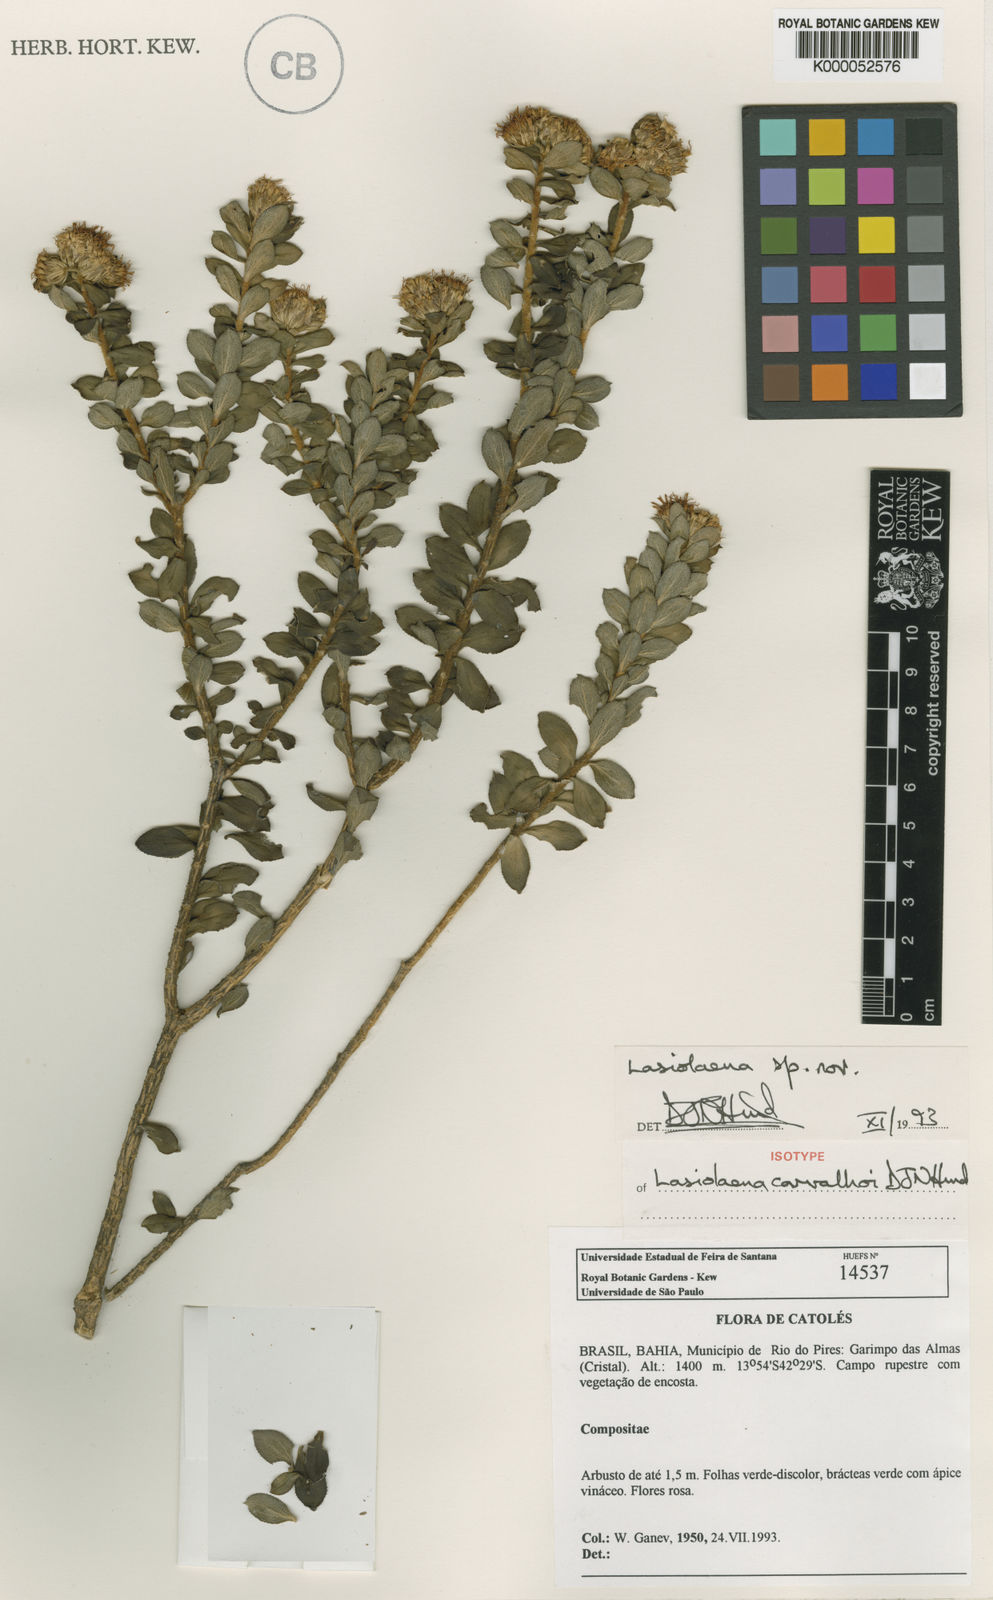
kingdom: Plantae
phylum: Tracheophyta
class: Magnoliopsida
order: Asterales
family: Asteraceae
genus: Lasiolaena
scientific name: Lasiolaena carvalhoi
